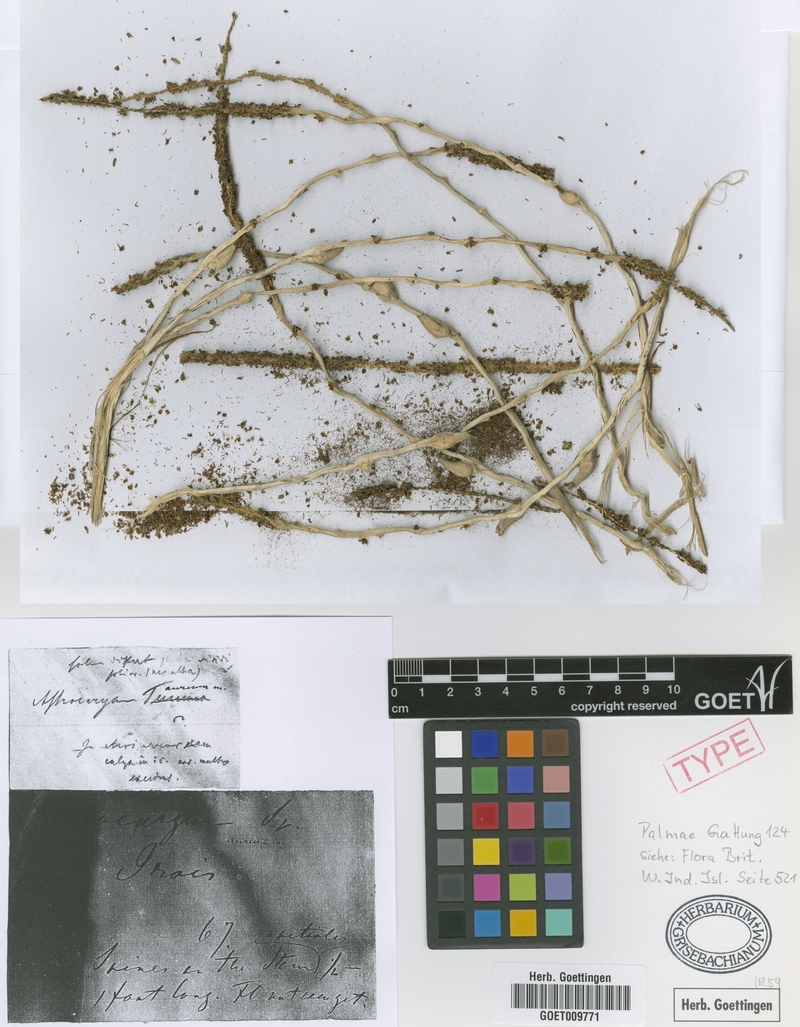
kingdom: Plantae
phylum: Tracheophyta
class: Liliopsida
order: Arecales
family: Arecaceae
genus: Astrocaryum
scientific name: Astrocaryum aculeatum
